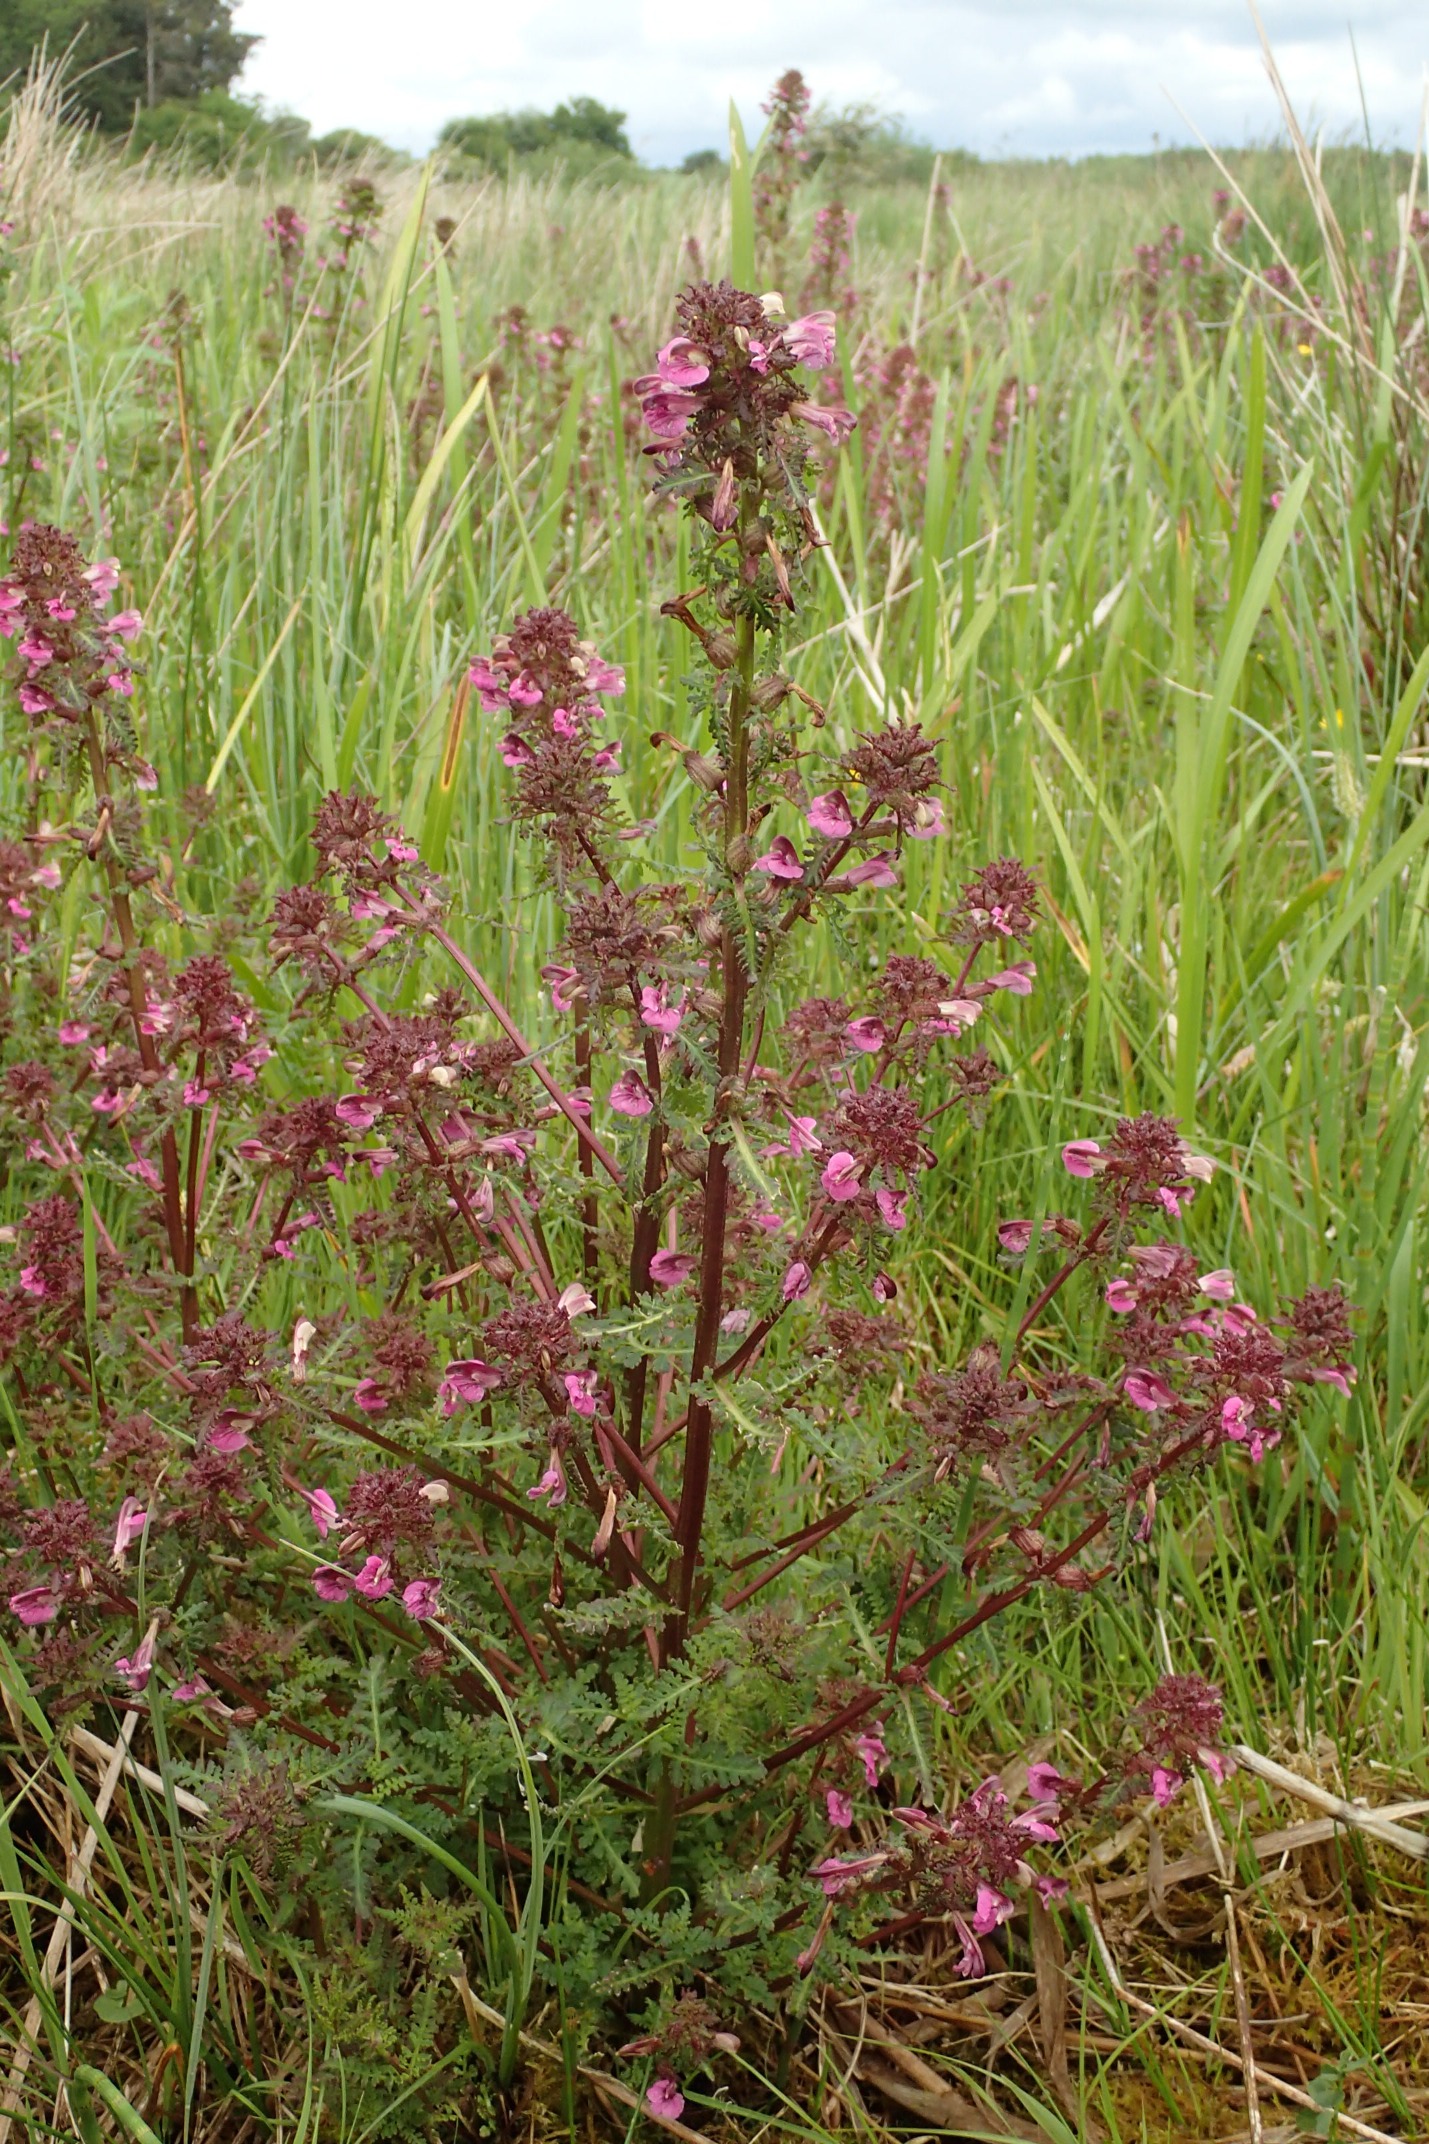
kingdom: Plantae
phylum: Tracheophyta
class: Magnoliopsida
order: Lamiales
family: Orobanchaceae
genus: Pedicularis
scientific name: Pedicularis palustris
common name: Eng-troldurt
